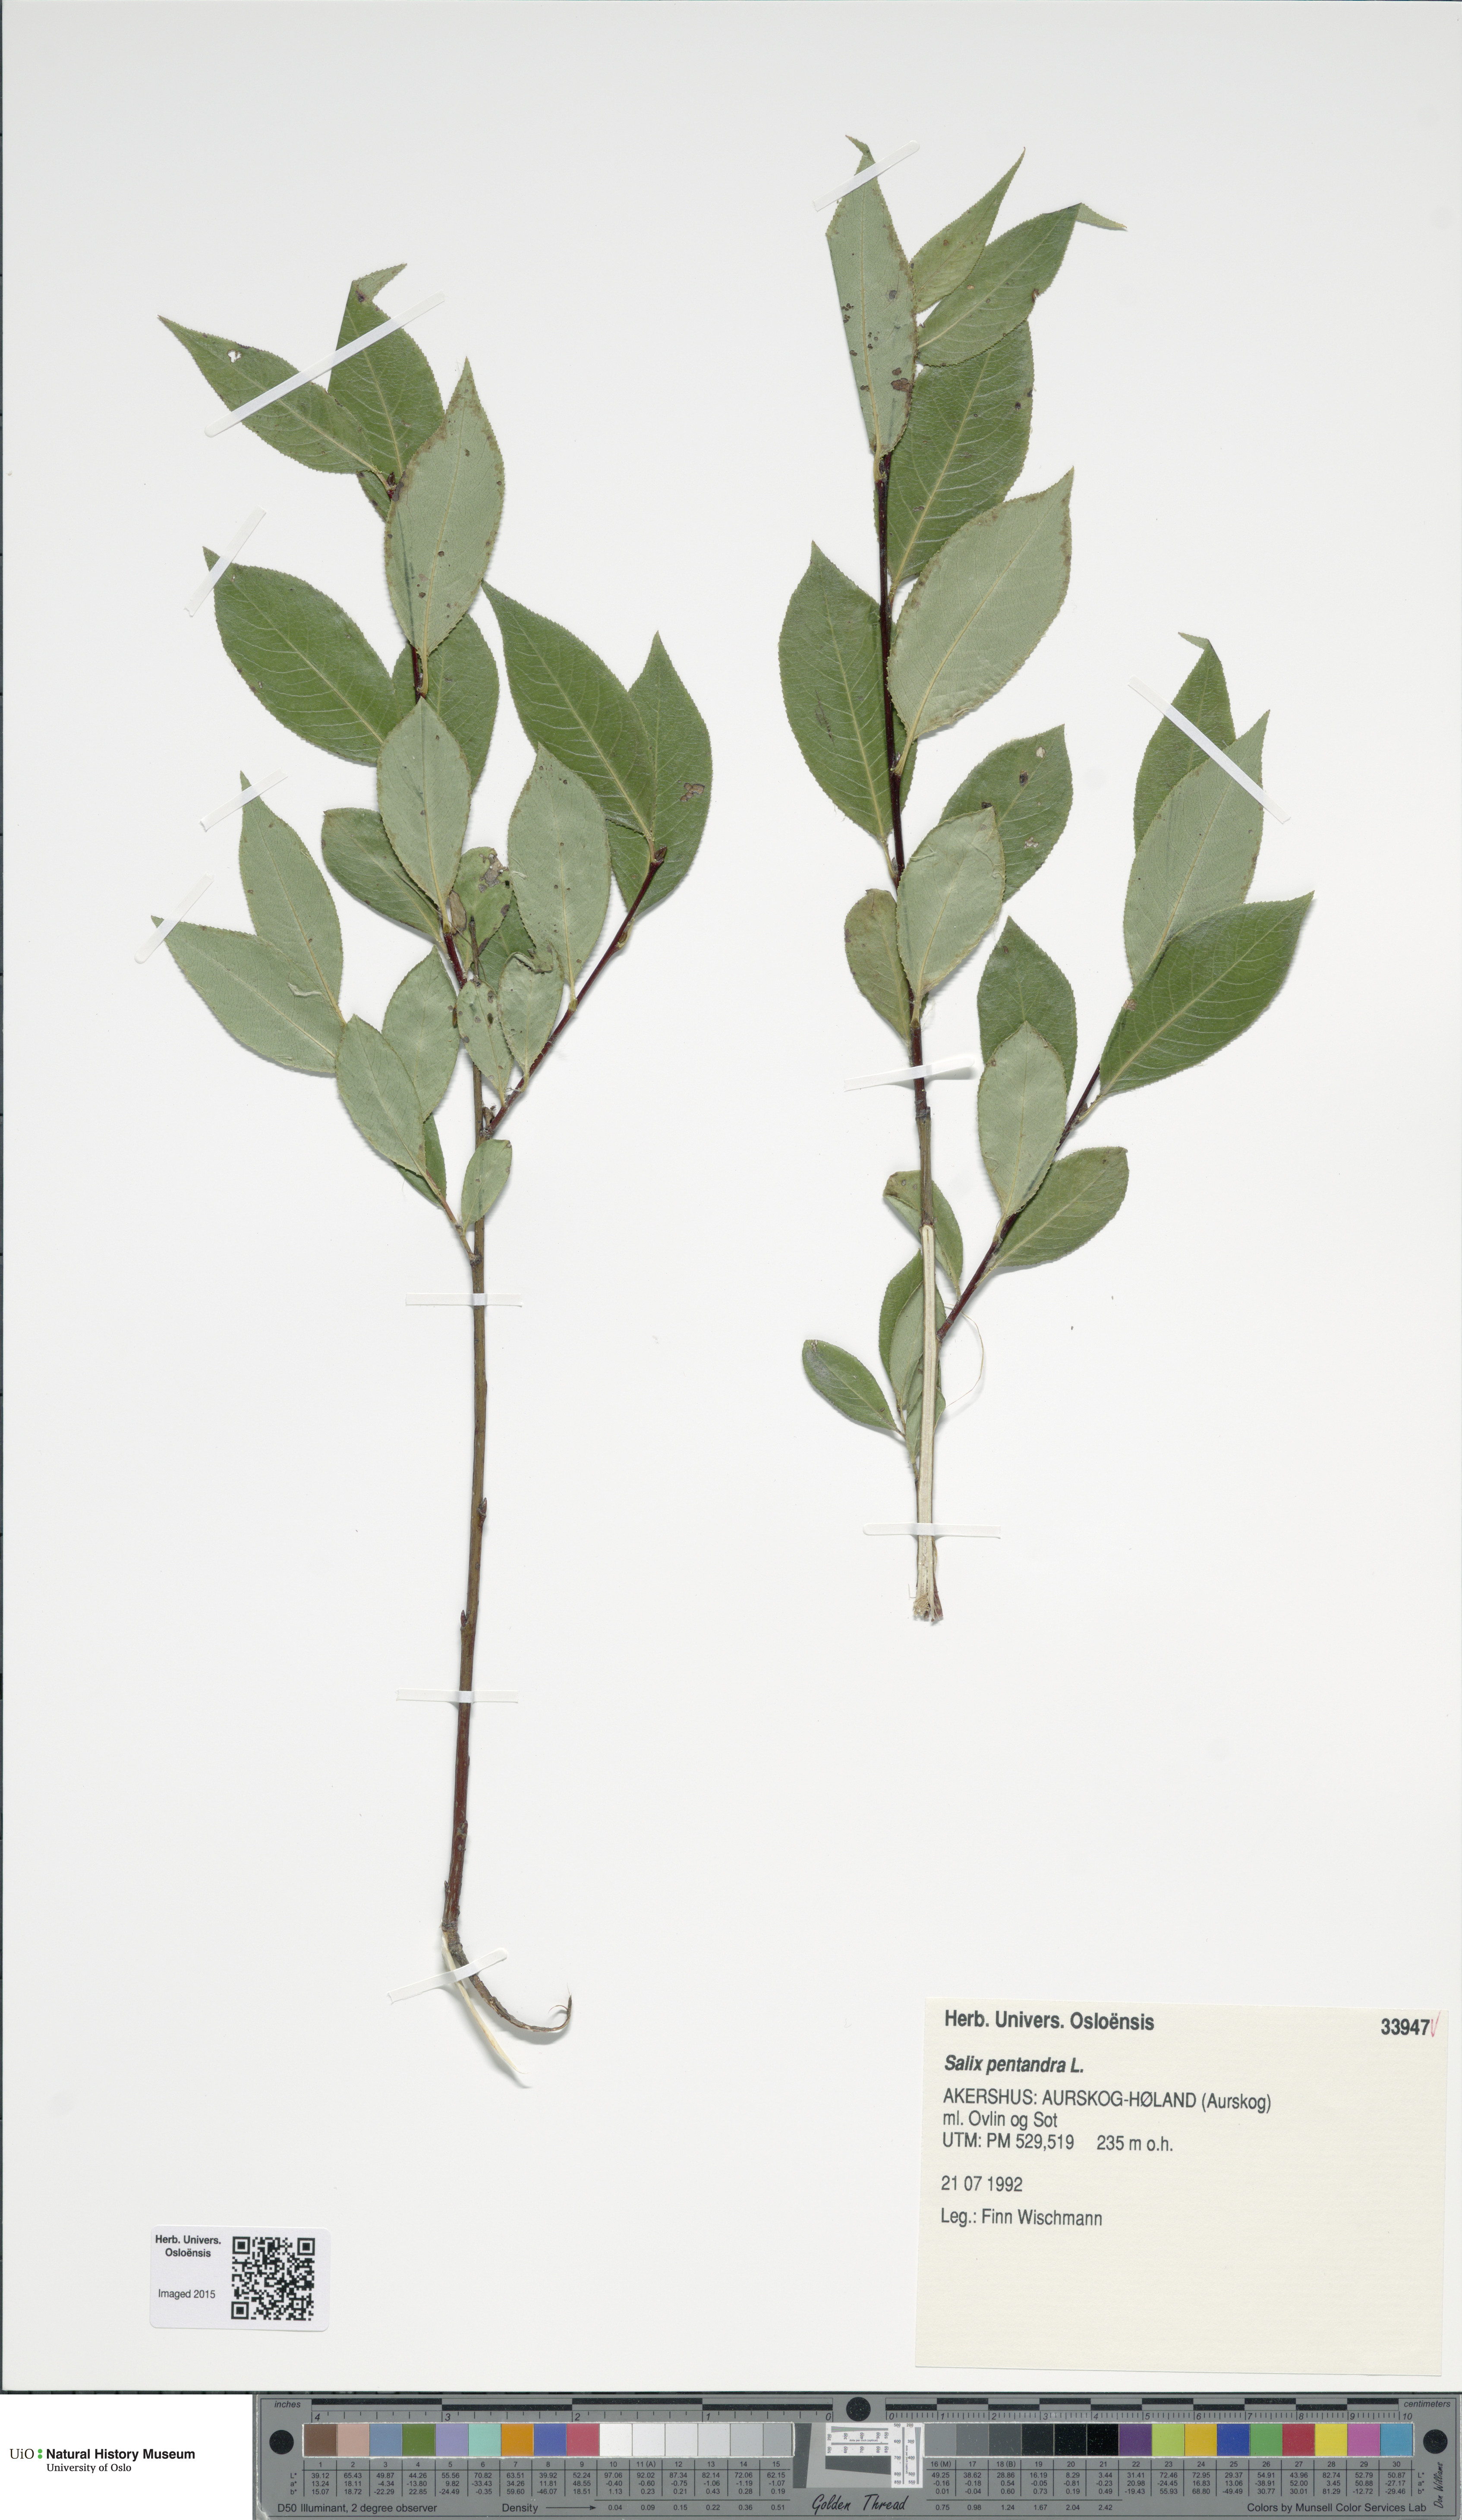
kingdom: Plantae
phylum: Tracheophyta
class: Magnoliopsida
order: Malpighiales
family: Salicaceae
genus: Salix
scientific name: Salix pentandra
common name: Bay willow
